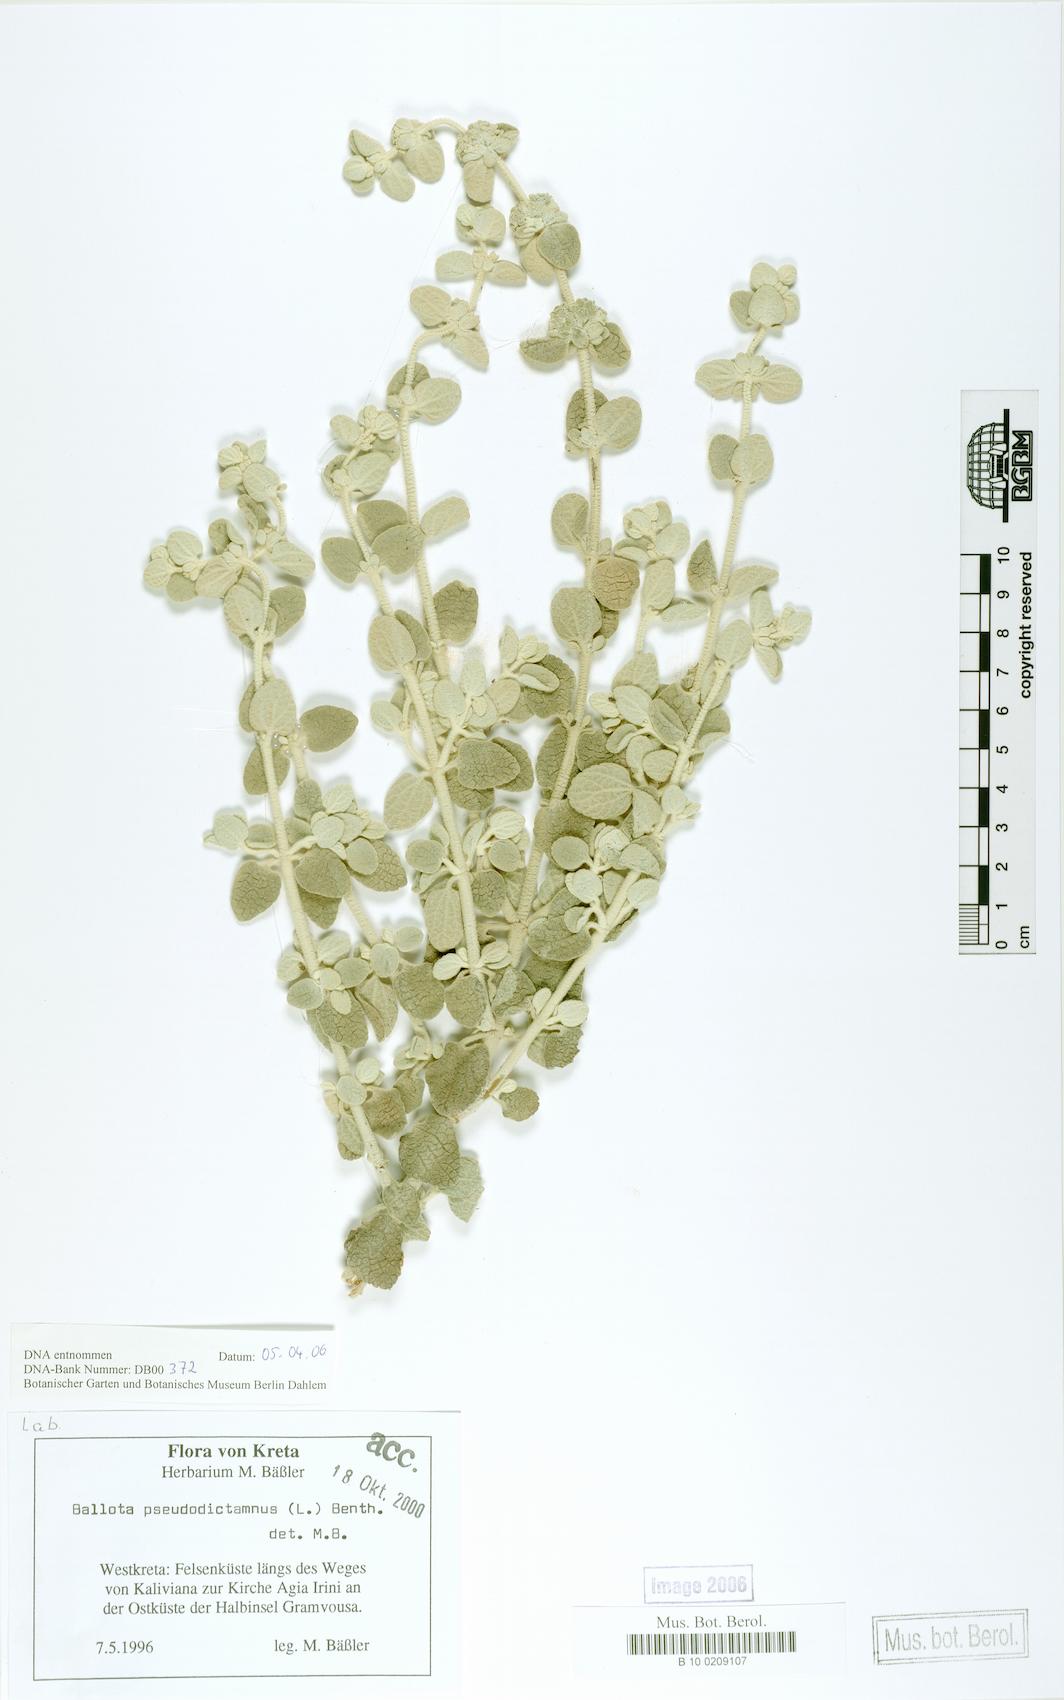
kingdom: Plantae
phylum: Tracheophyta
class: Magnoliopsida
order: Lamiales
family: Lamiaceae
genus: Pseudodictamnus
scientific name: Pseudodictamnus mediterraneus
